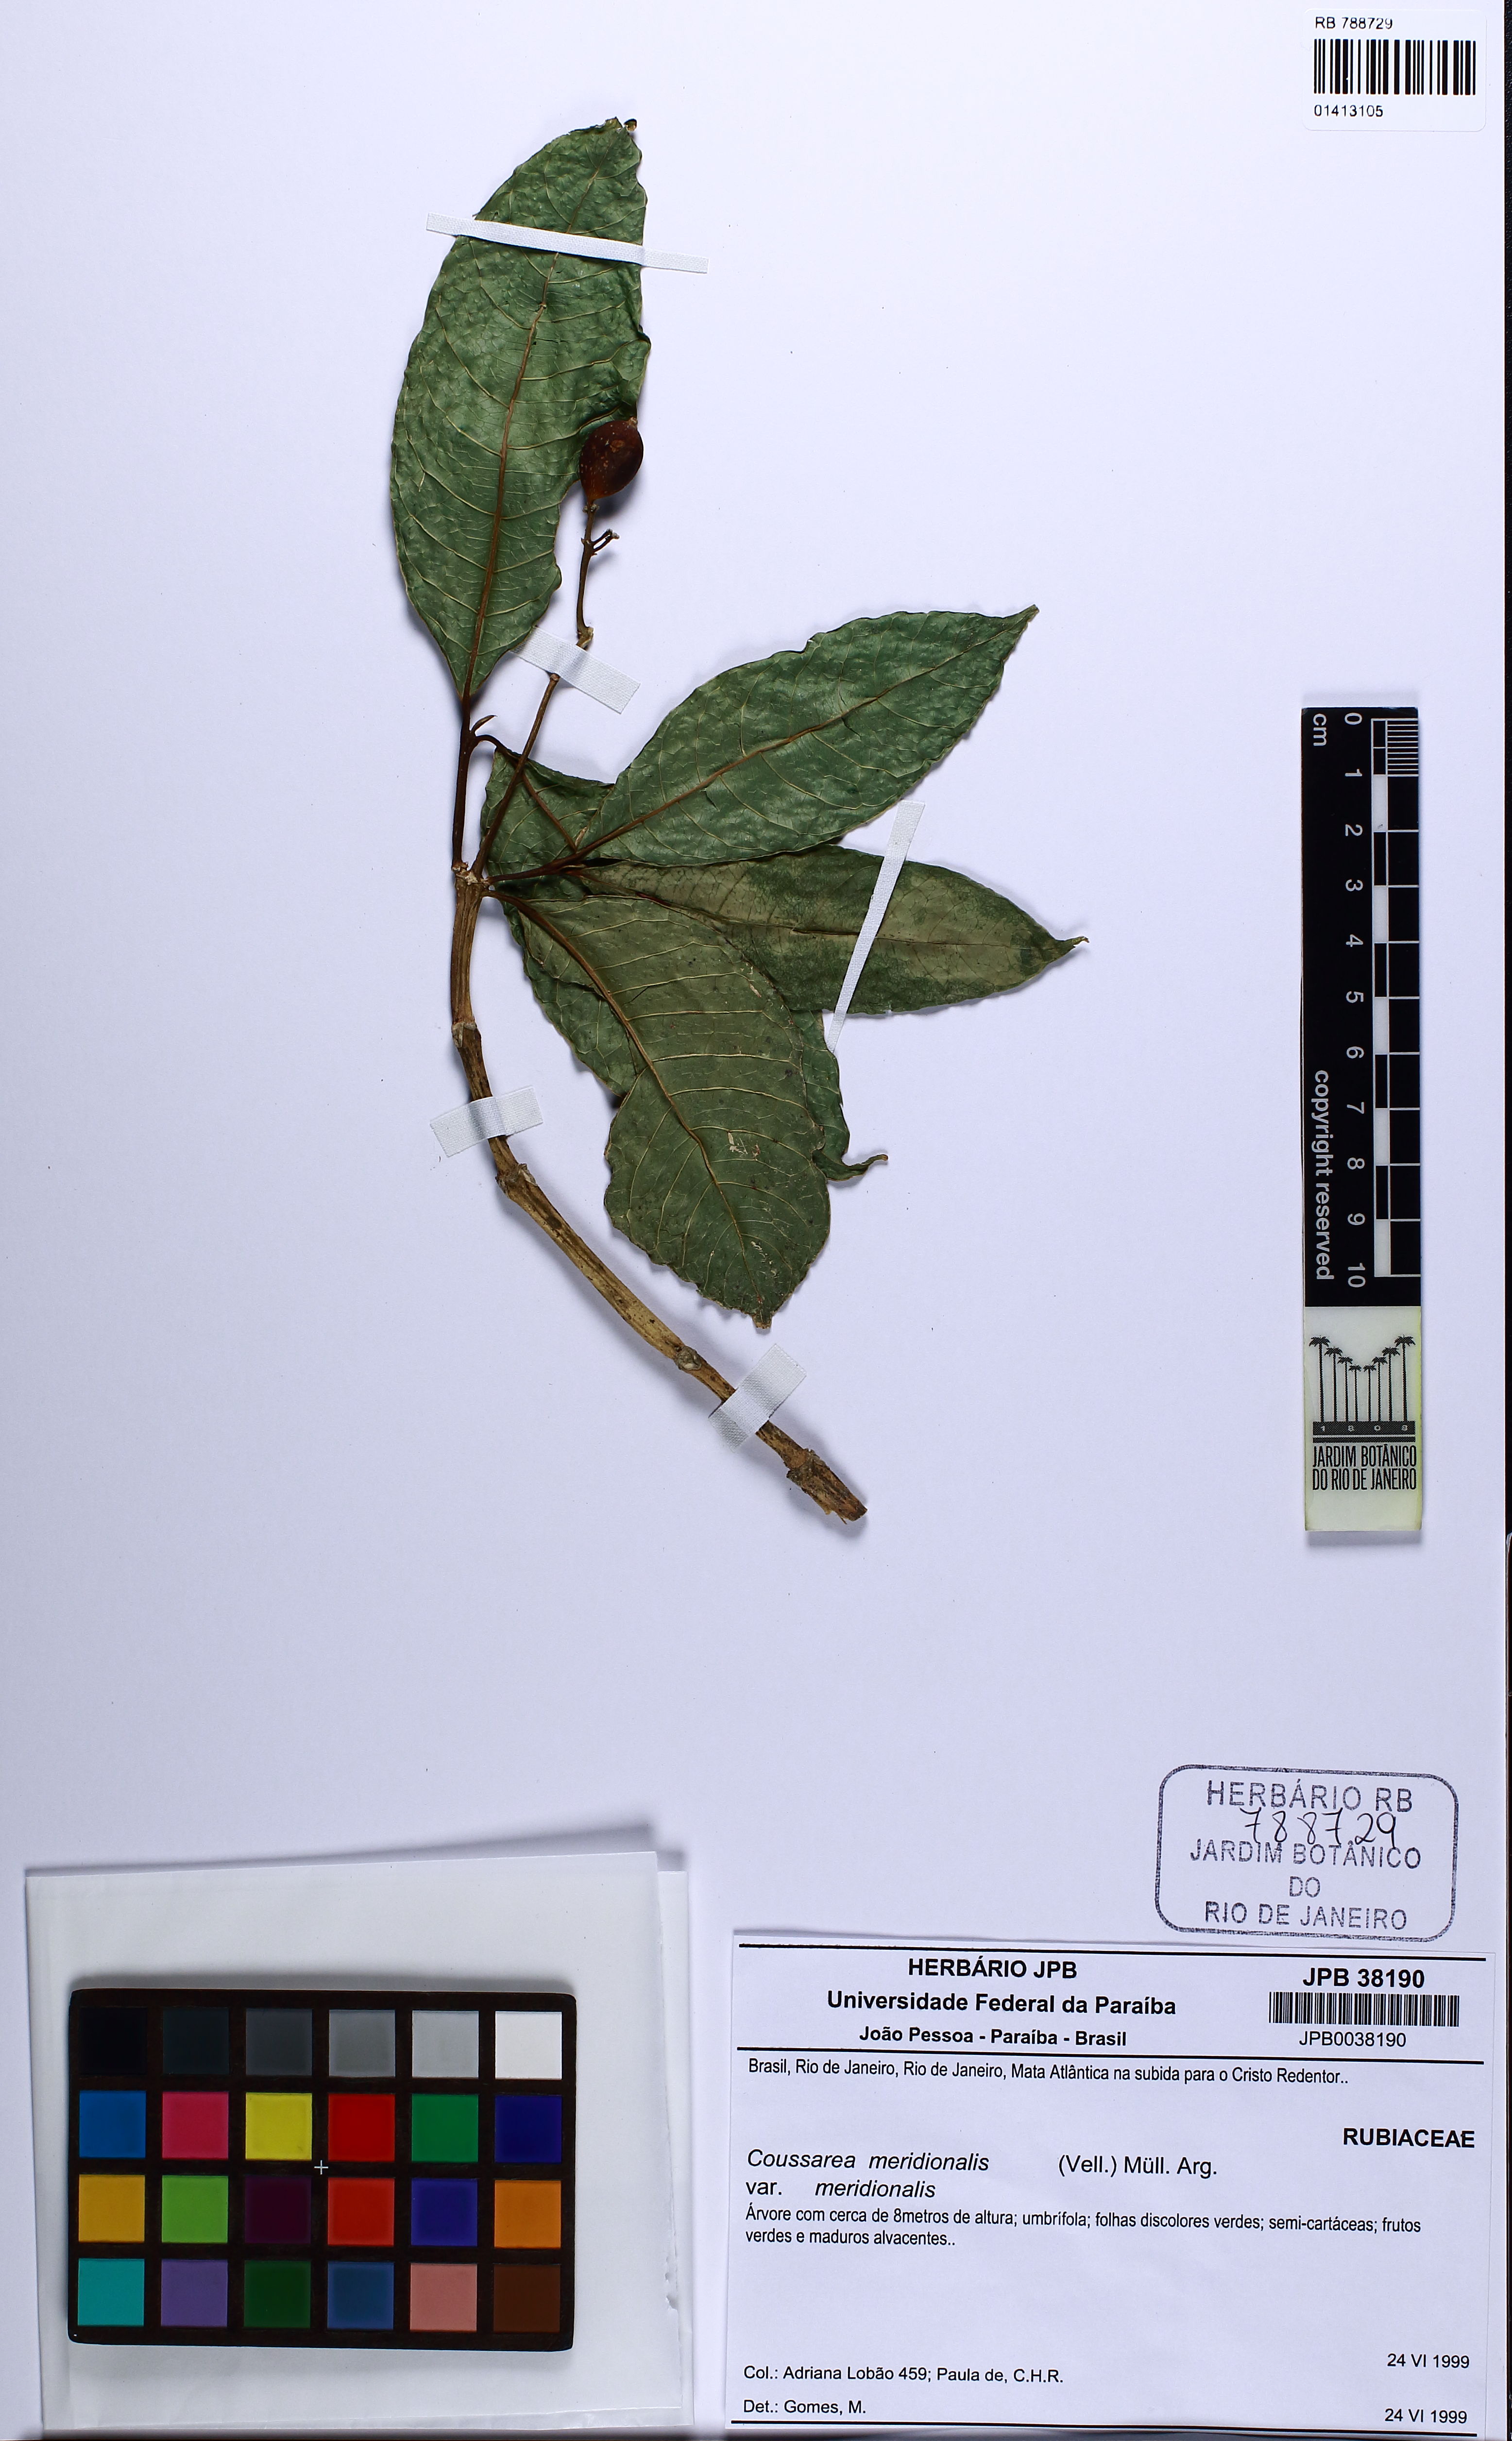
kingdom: Plantae
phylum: Tracheophyta
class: Magnoliopsida
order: Gentianales
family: Rubiaceae
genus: Coussarea
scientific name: Coussarea meridionalis
